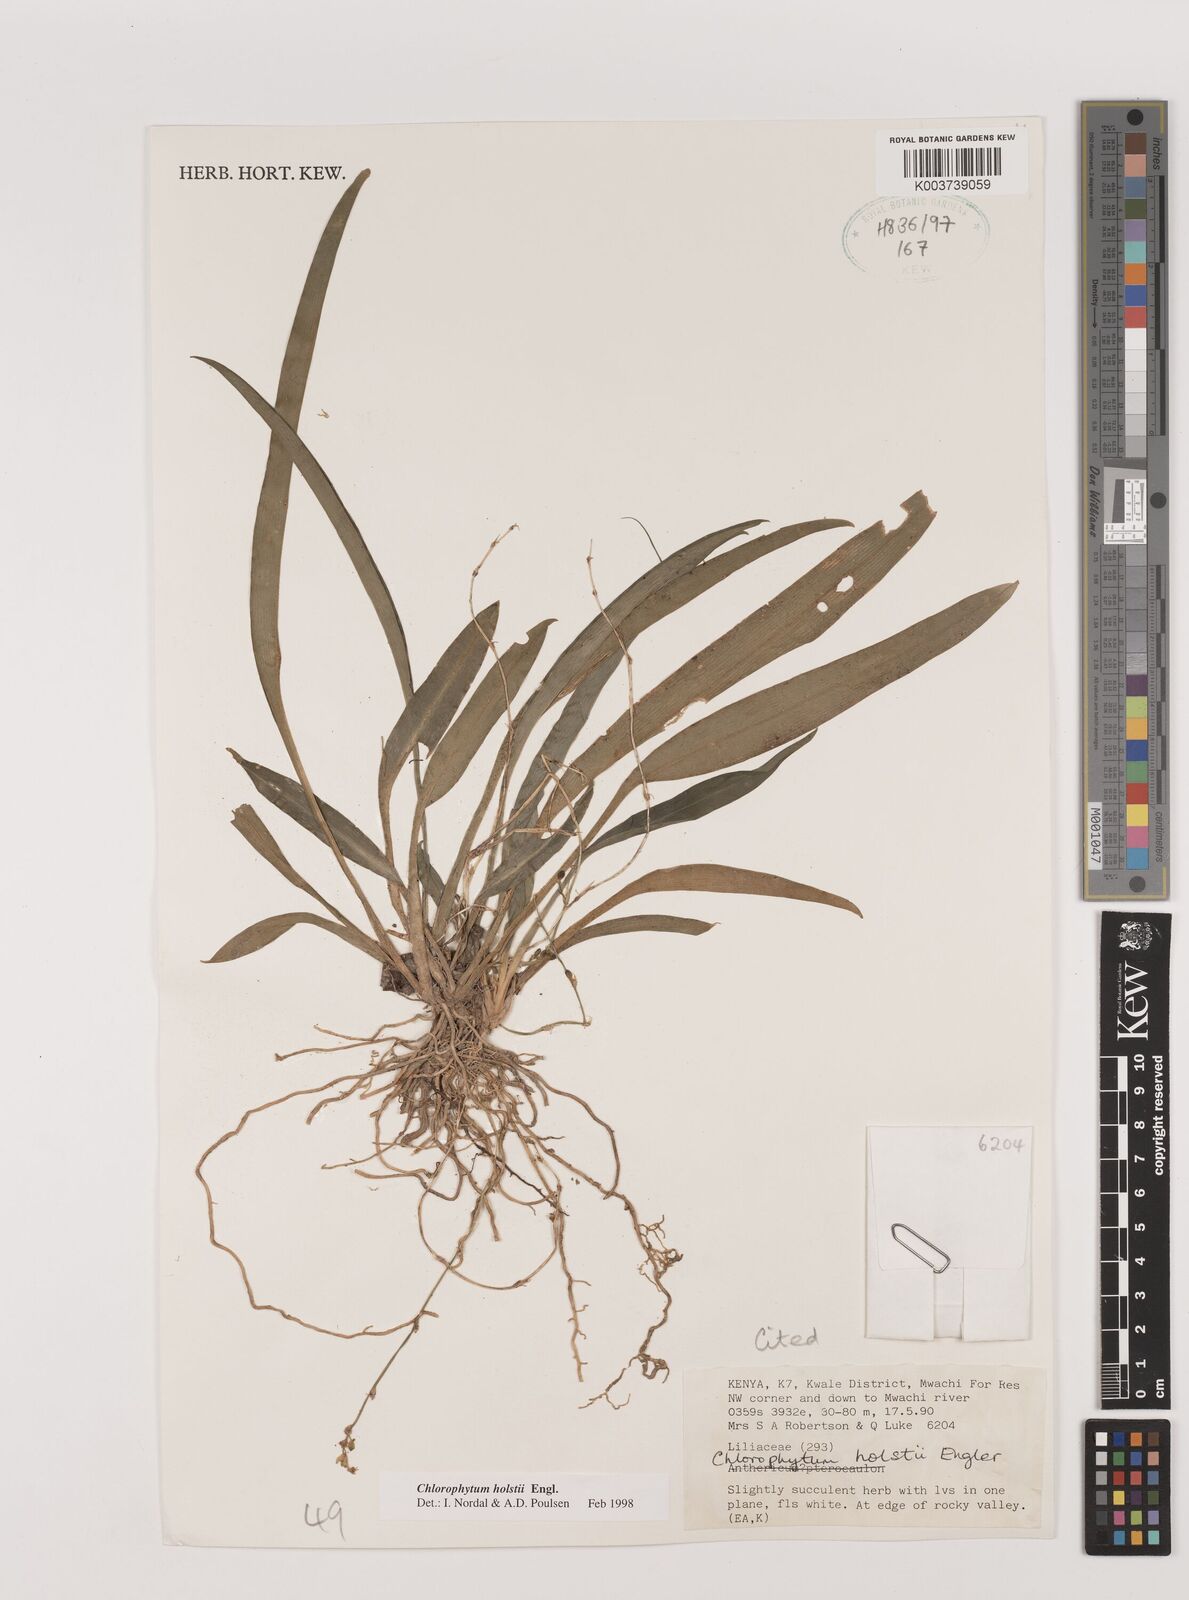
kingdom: Plantae
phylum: Tracheophyta
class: Liliopsida
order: Asparagales
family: Asparagaceae
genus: Chlorophytum
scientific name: Chlorophytum holstii
